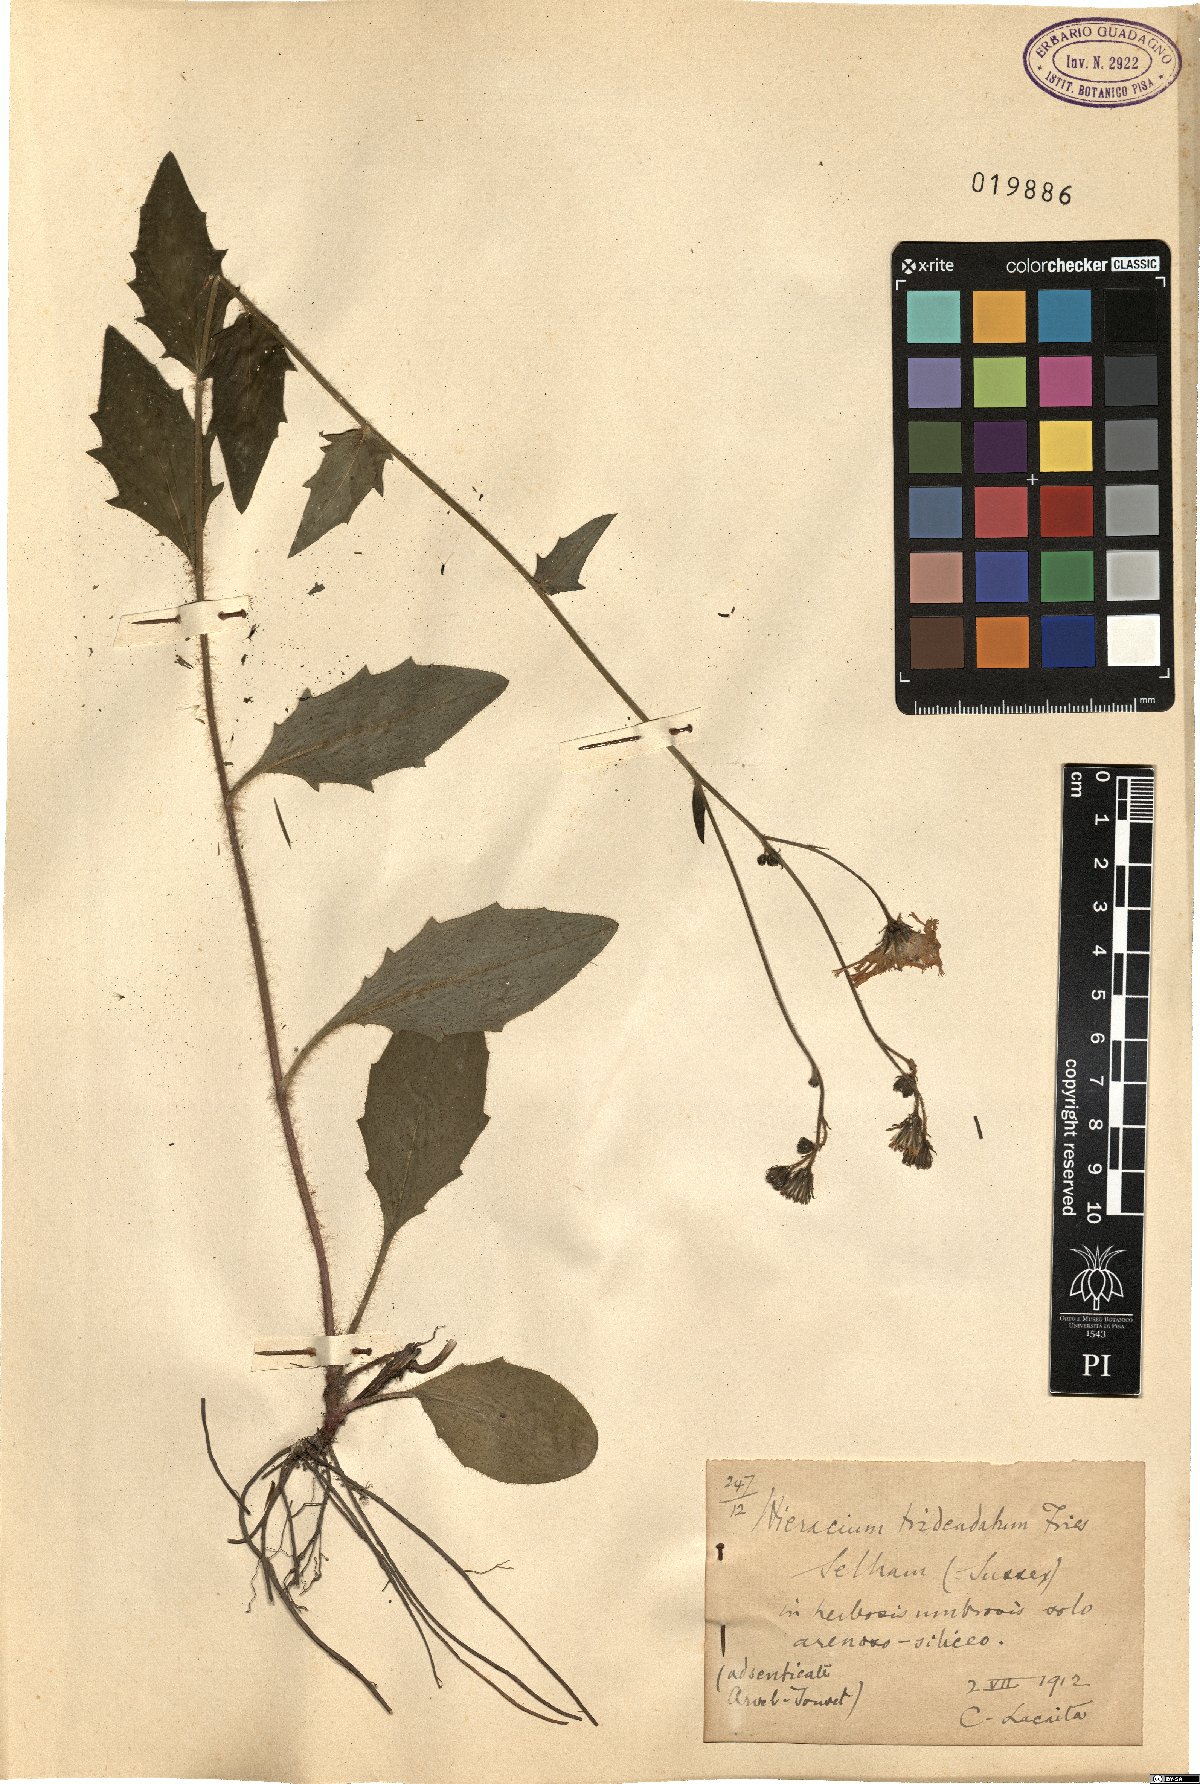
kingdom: Plantae
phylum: Tracheophyta
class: Magnoliopsida
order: Asterales
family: Asteraceae
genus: Hieracium
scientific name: Hieracium tridentatum
